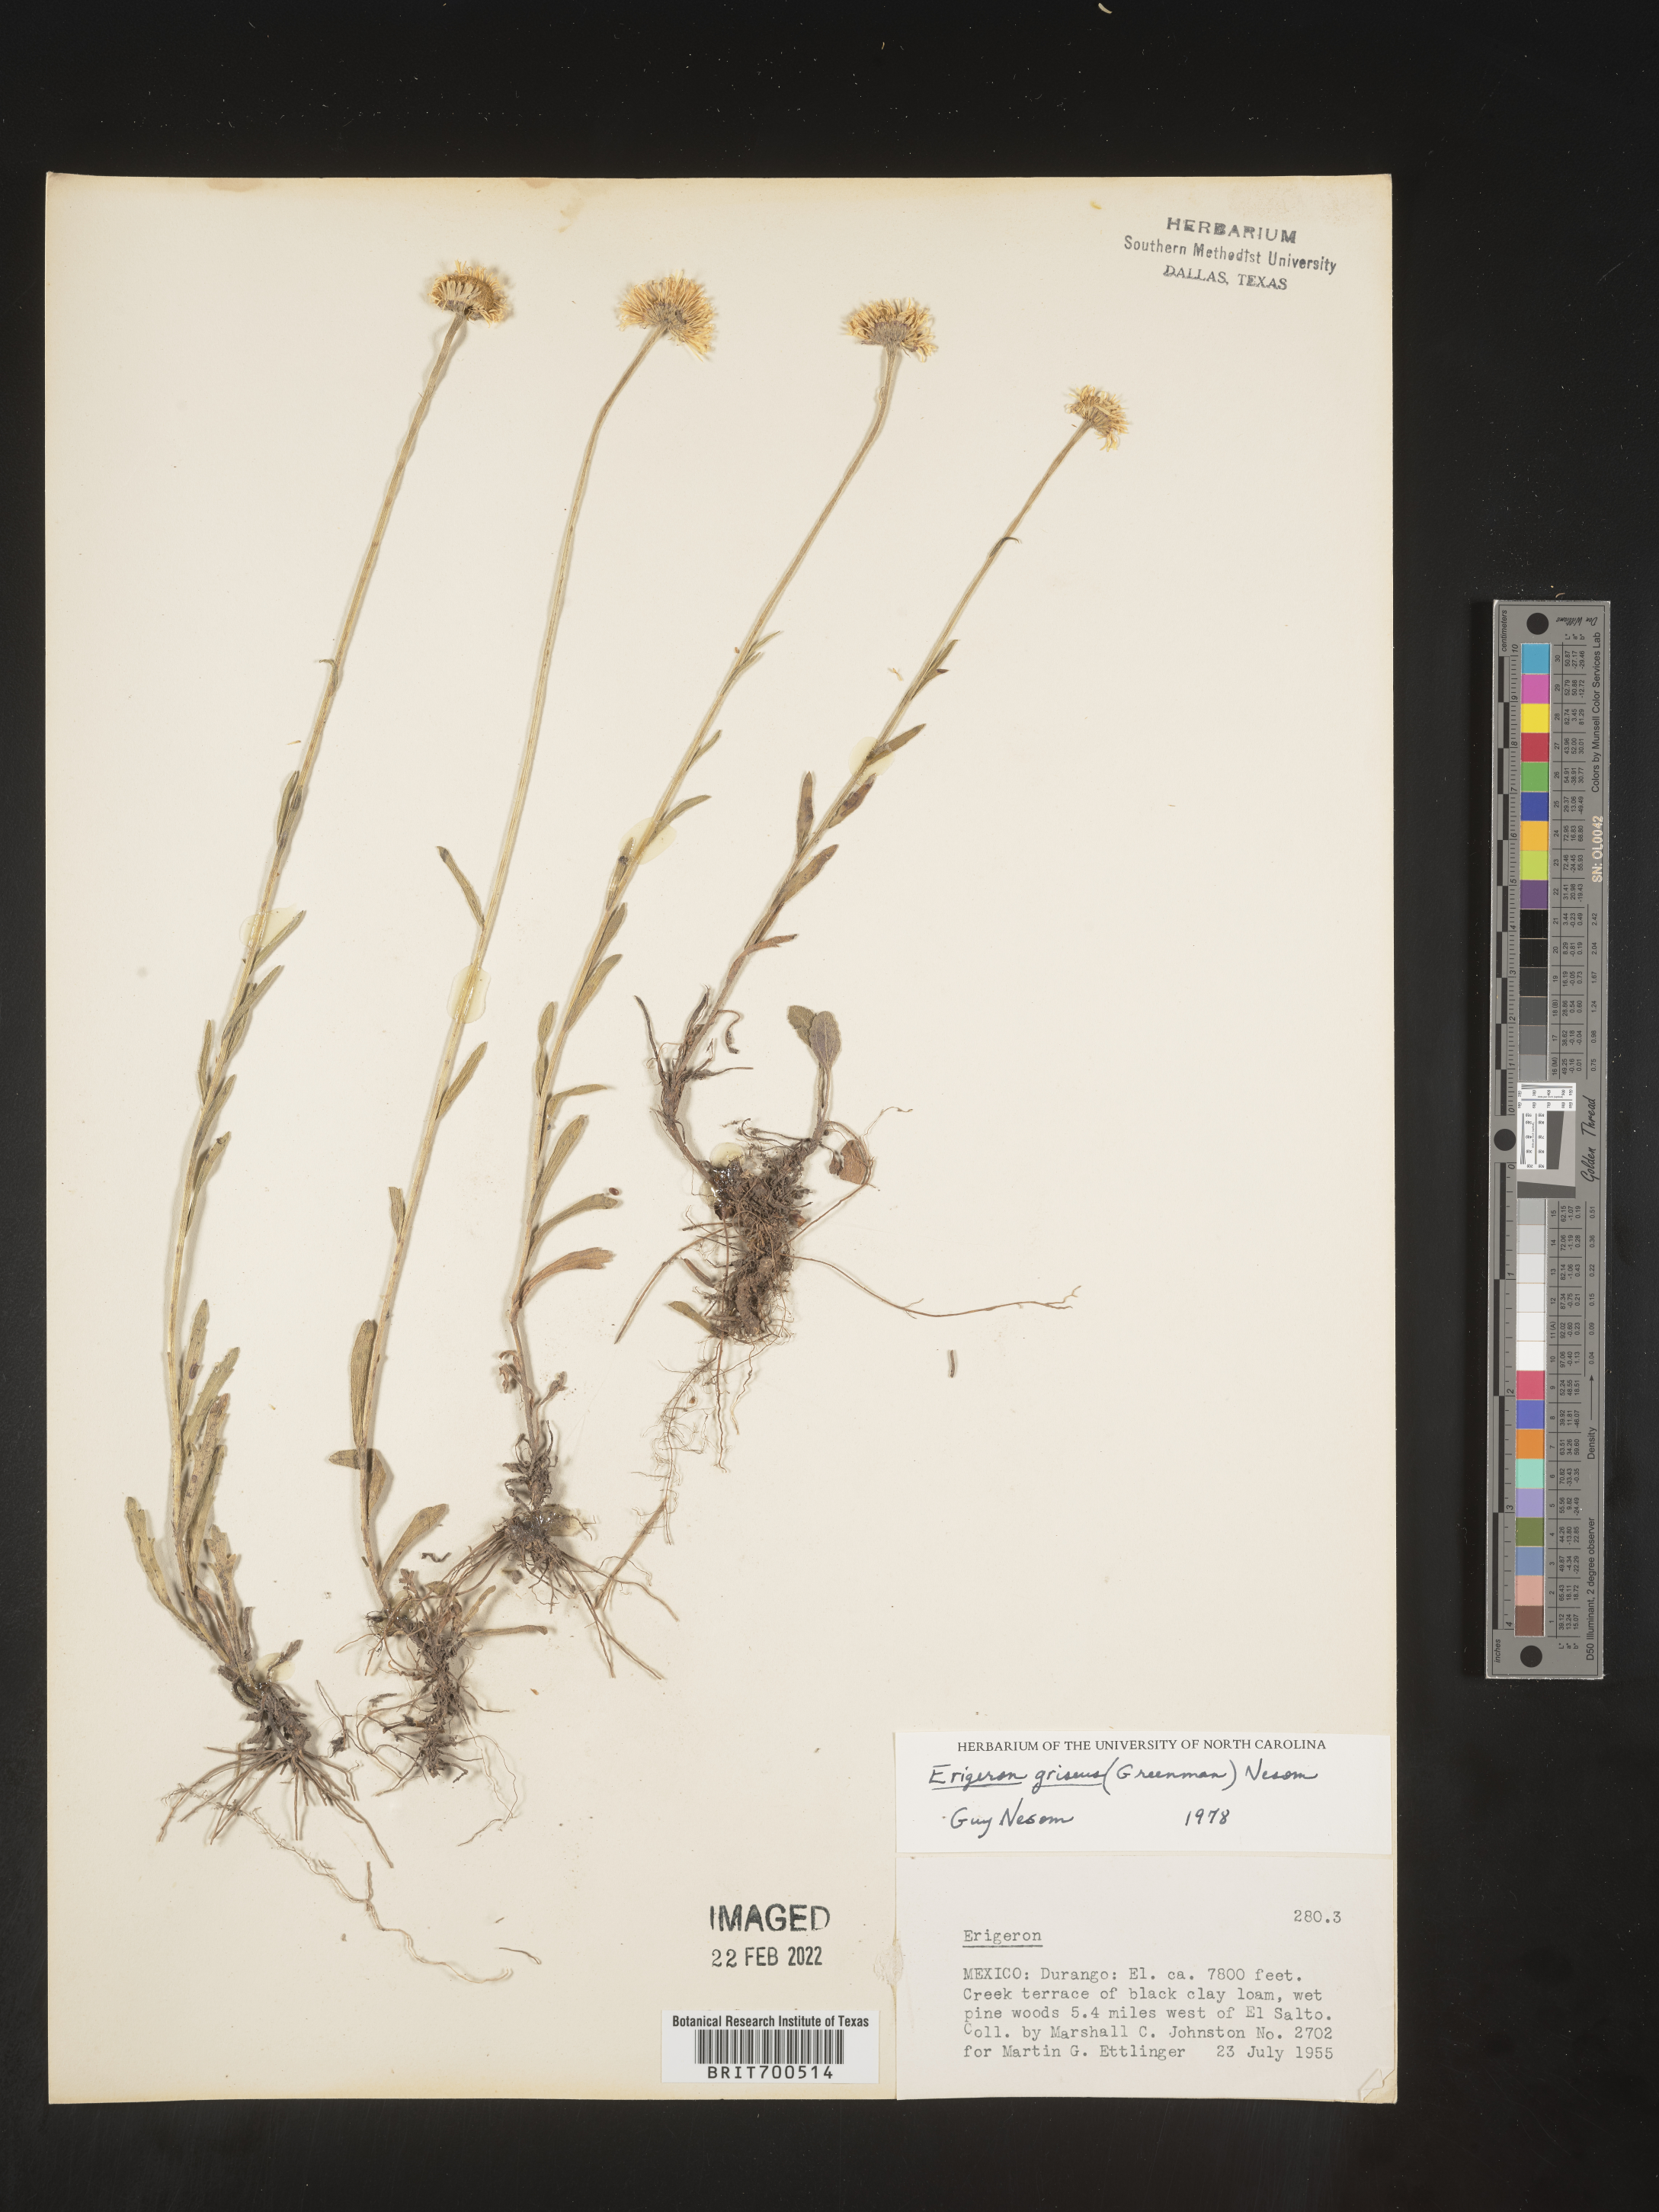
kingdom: Plantae
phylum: Tracheophyta
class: Magnoliopsida
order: Asterales
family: Asteraceae
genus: Erigeron
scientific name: Erigeron
